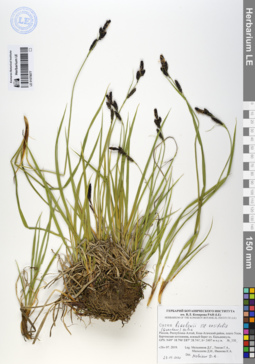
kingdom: Plantae
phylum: Tracheophyta
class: Liliopsida
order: Poales
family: Cyperaceae
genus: Carex
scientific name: Carex bigelowii
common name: Stiff sedge
